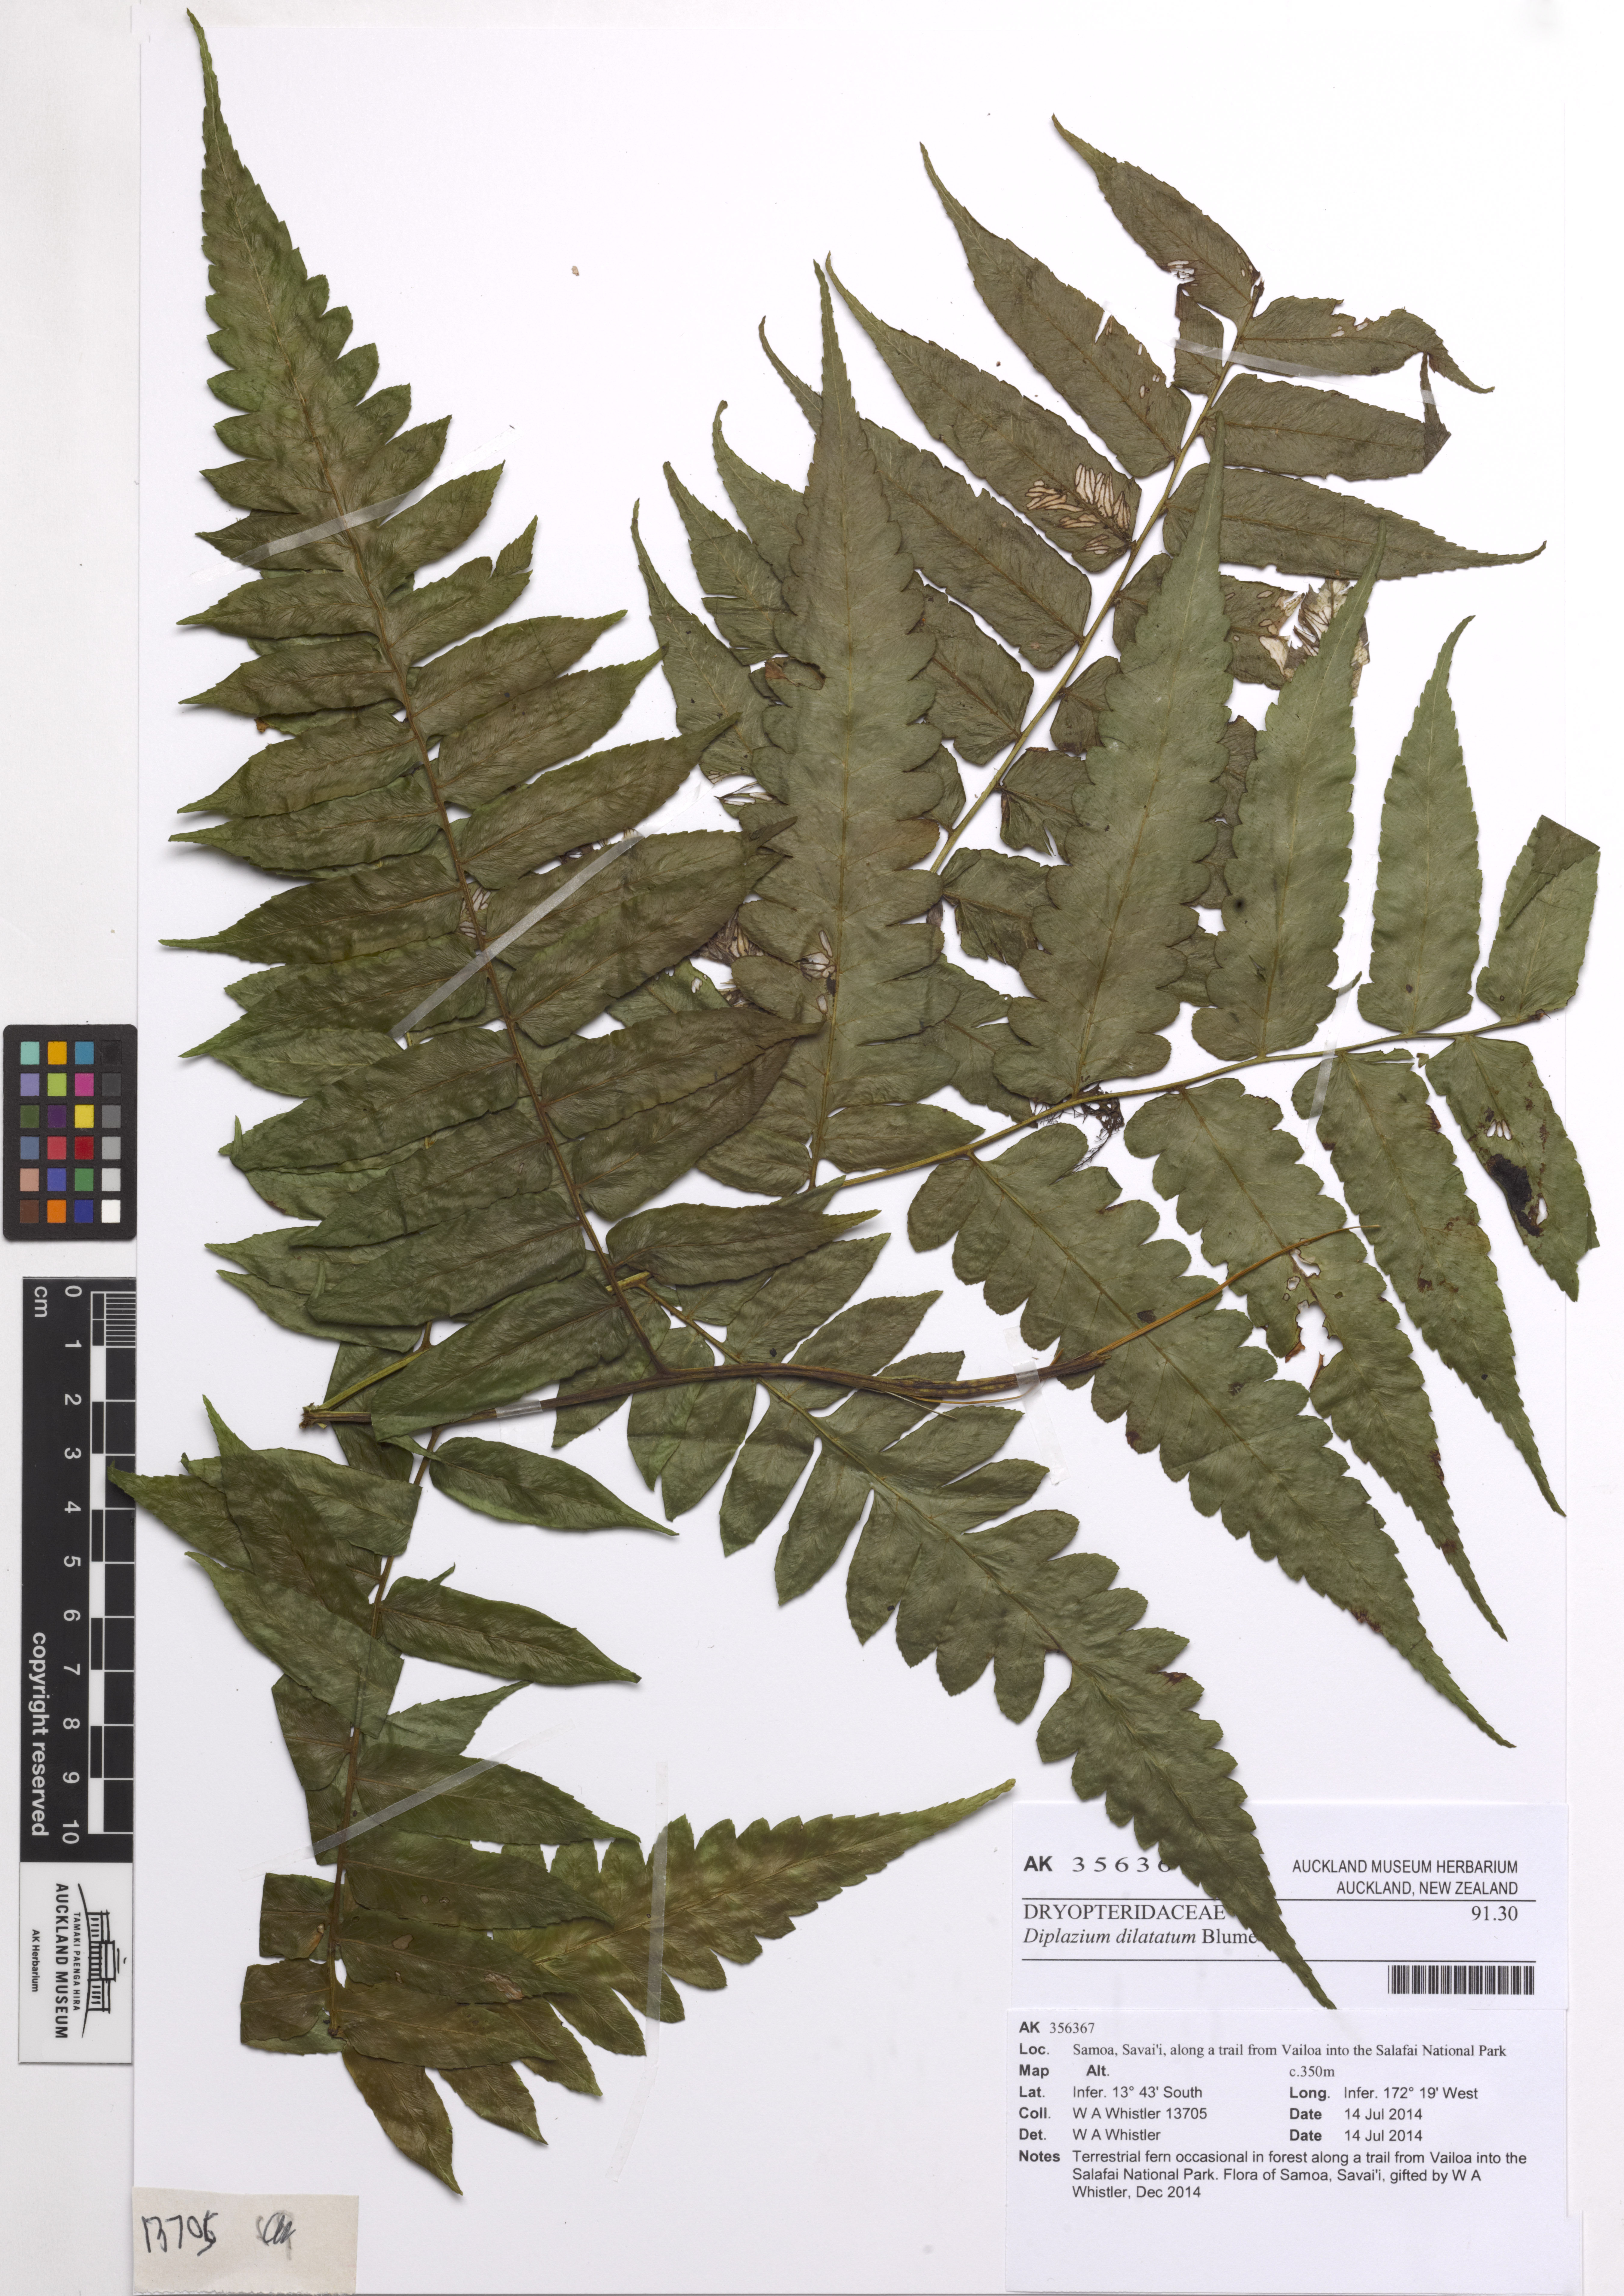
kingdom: Plantae
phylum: Tracheophyta
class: Polypodiopsida
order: Polypodiales
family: Athyriaceae
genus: Diplazium
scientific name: Diplazium dilatatum
